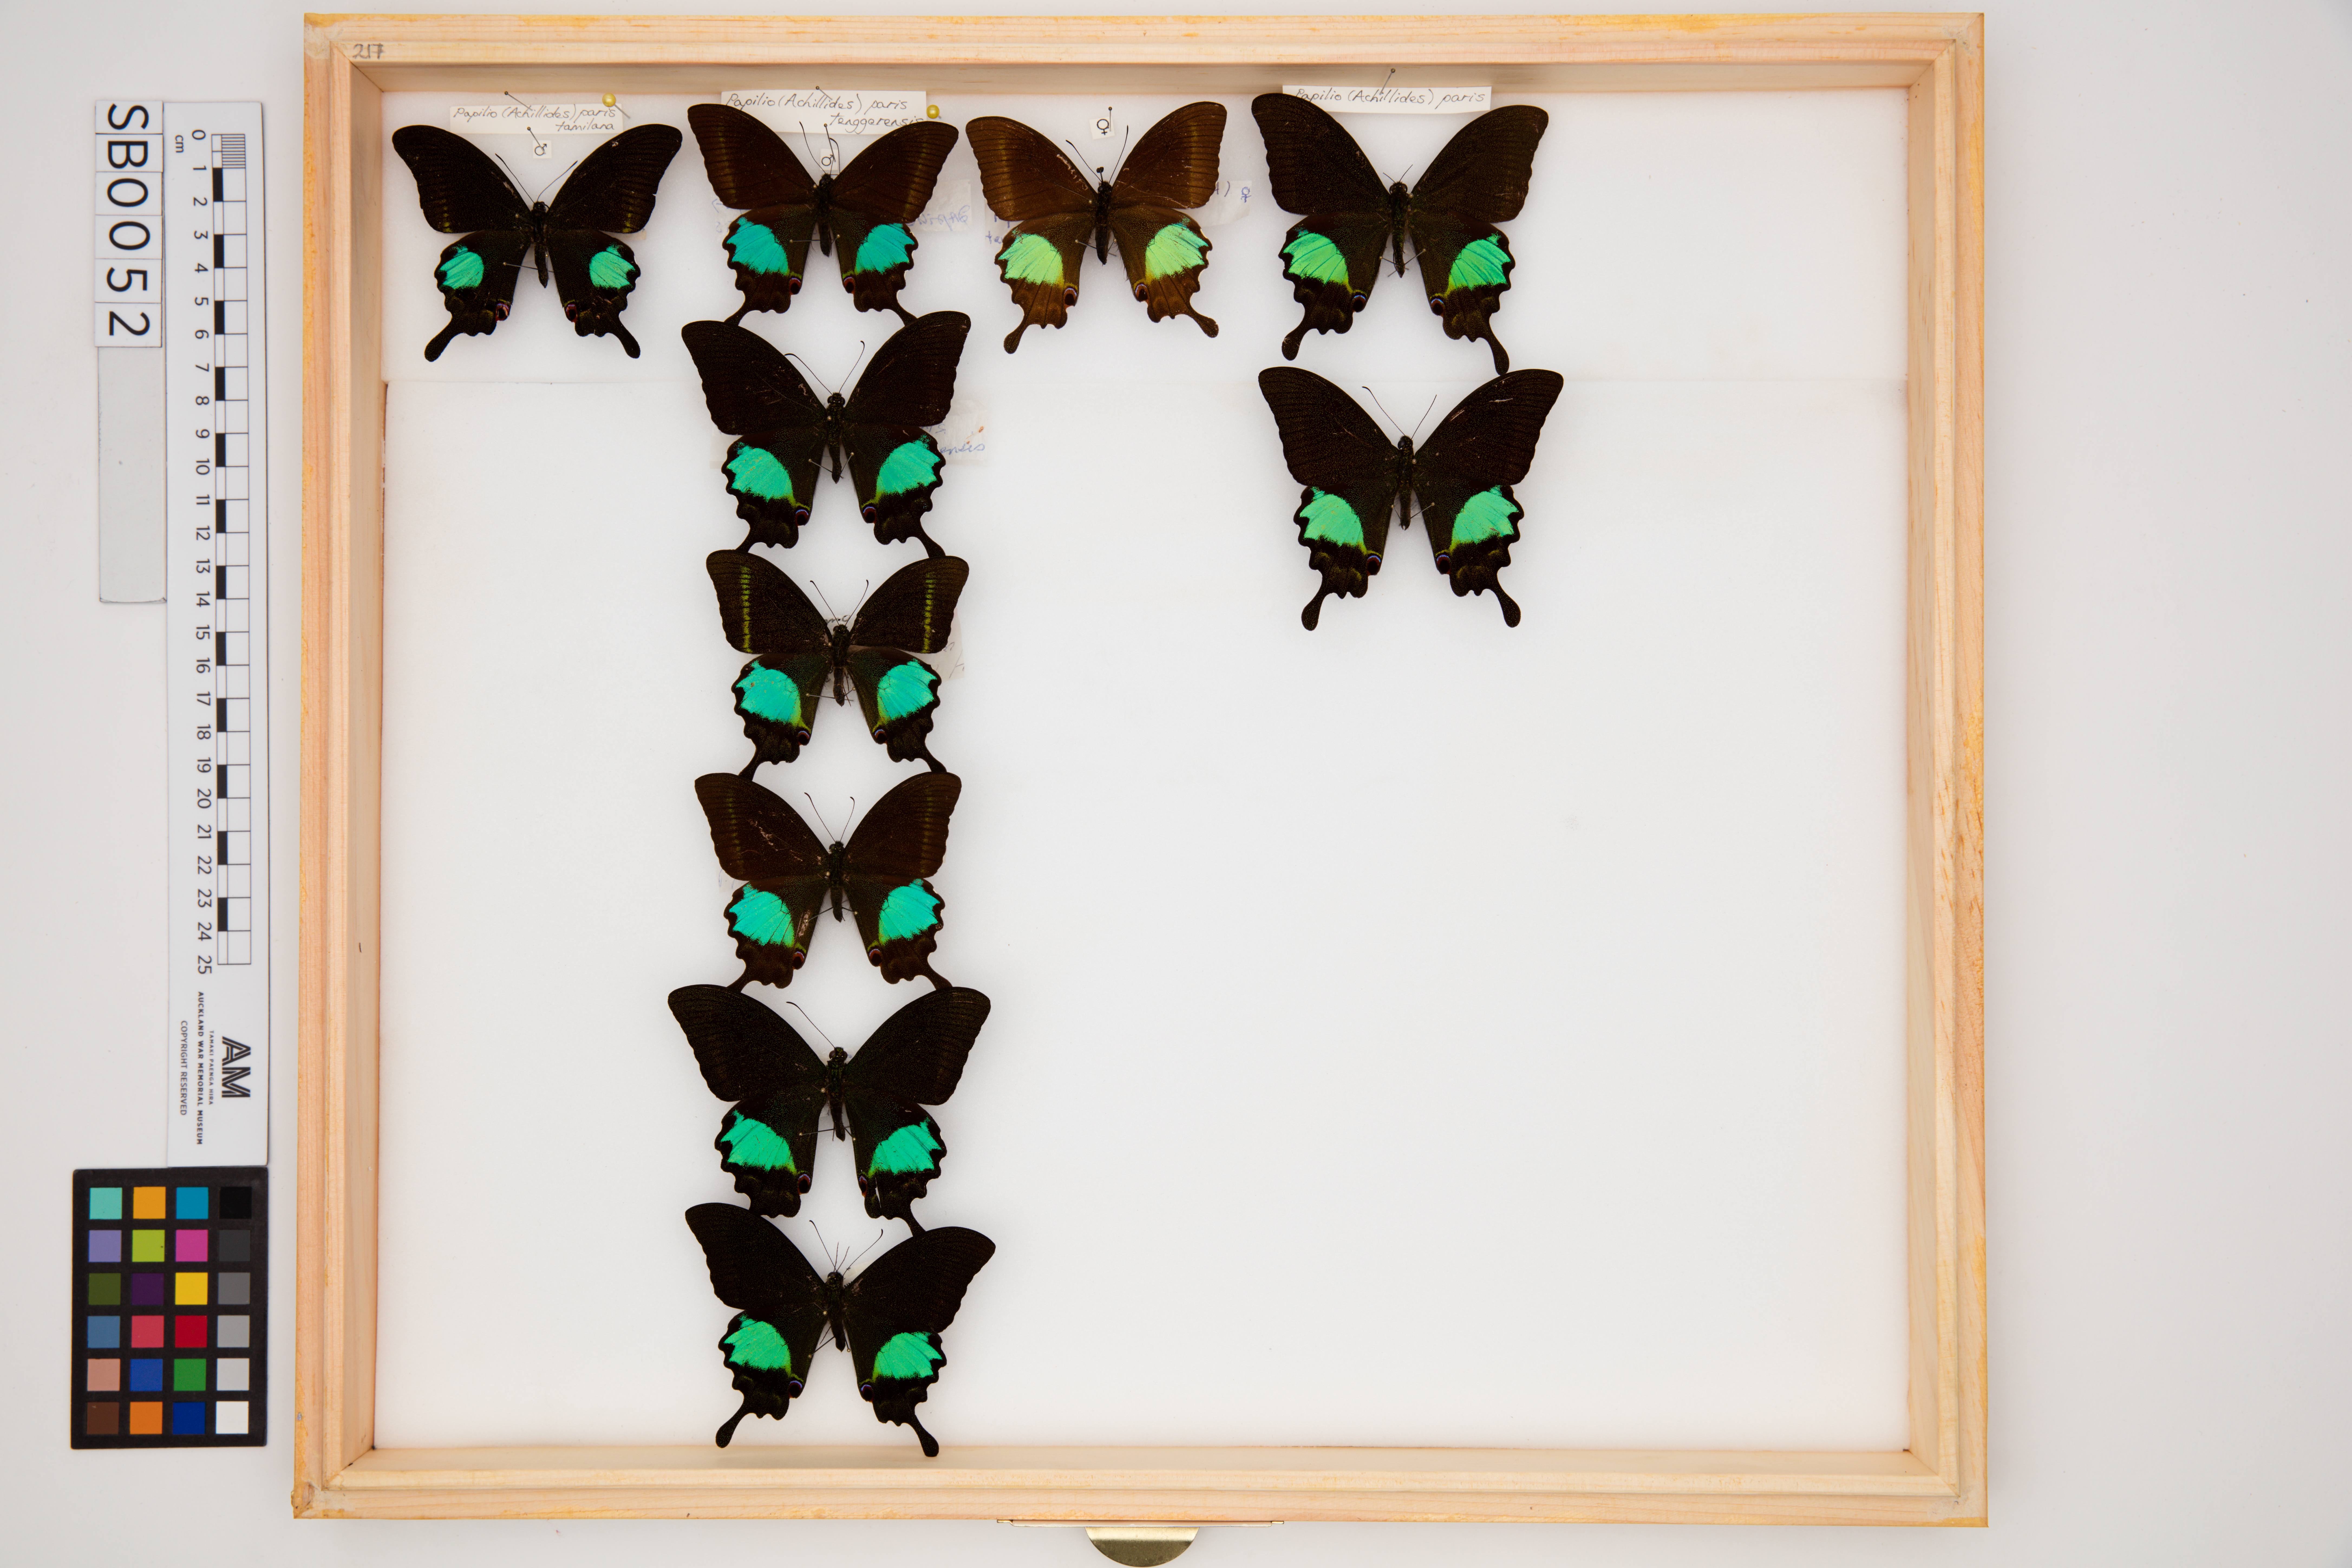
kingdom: Animalia
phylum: Arthropoda
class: Insecta
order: Lepidoptera
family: Papilionidae
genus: Papilio
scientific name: Papilio paris
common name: Paris peacock
